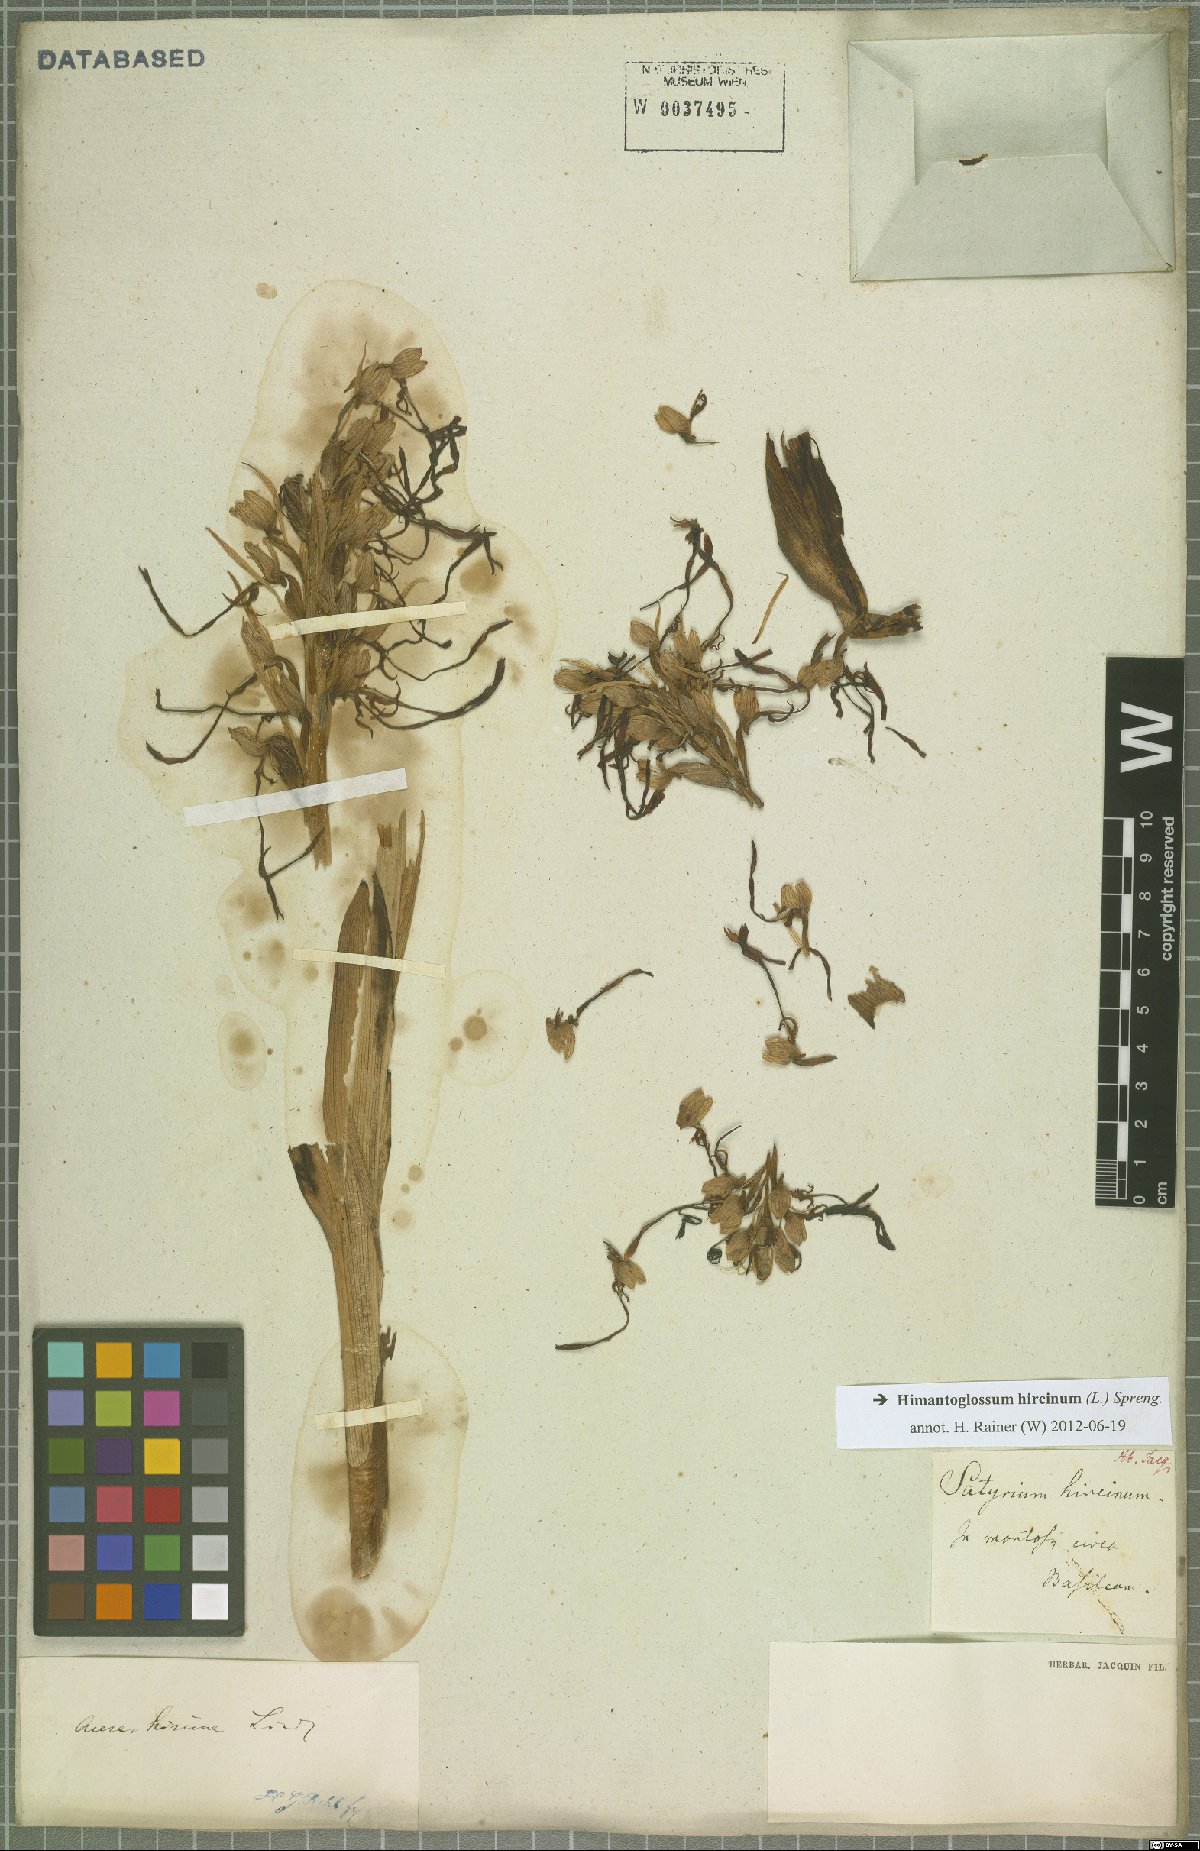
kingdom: Plantae
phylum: Tracheophyta
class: Liliopsida
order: Asparagales
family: Orchidaceae
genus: Himantoglossum
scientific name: Himantoglossum hircinum
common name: Lizard orchid
